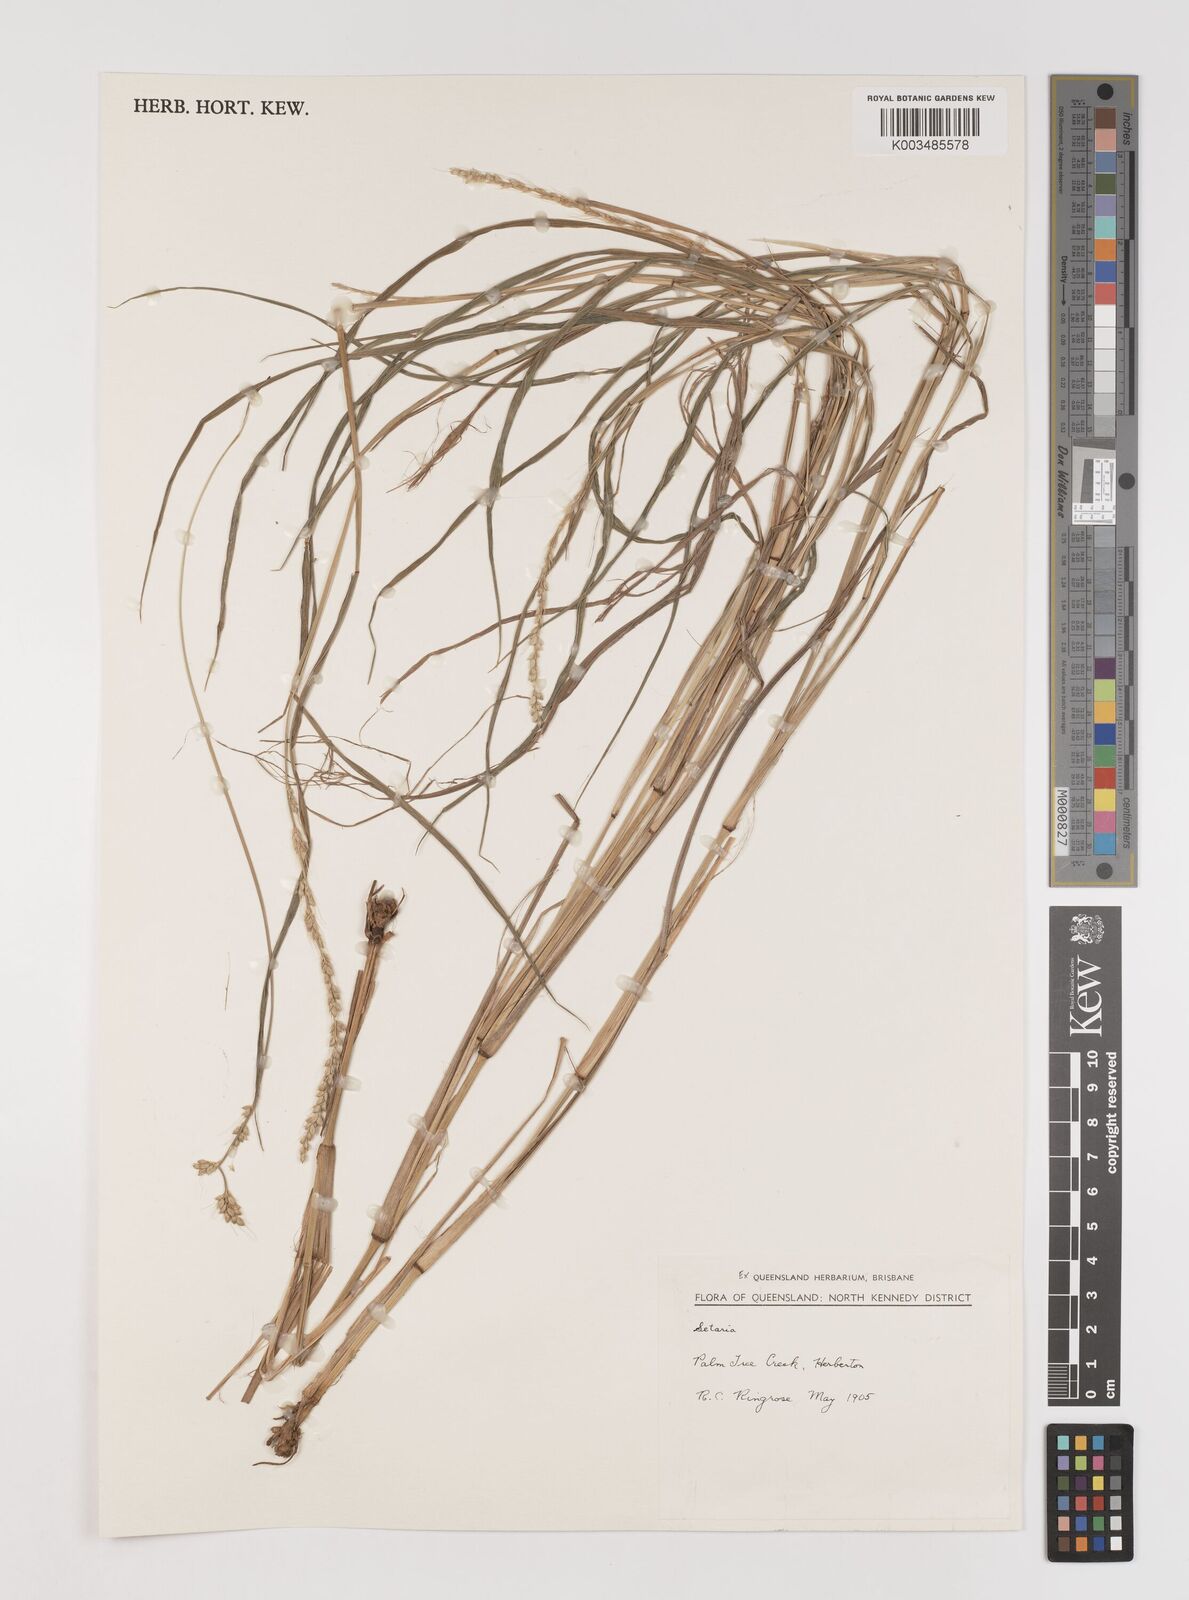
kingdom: Plantae
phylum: Tracheophyta
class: Liliopsida
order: Poales
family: Poaceae
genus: Setaria
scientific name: Setaria
